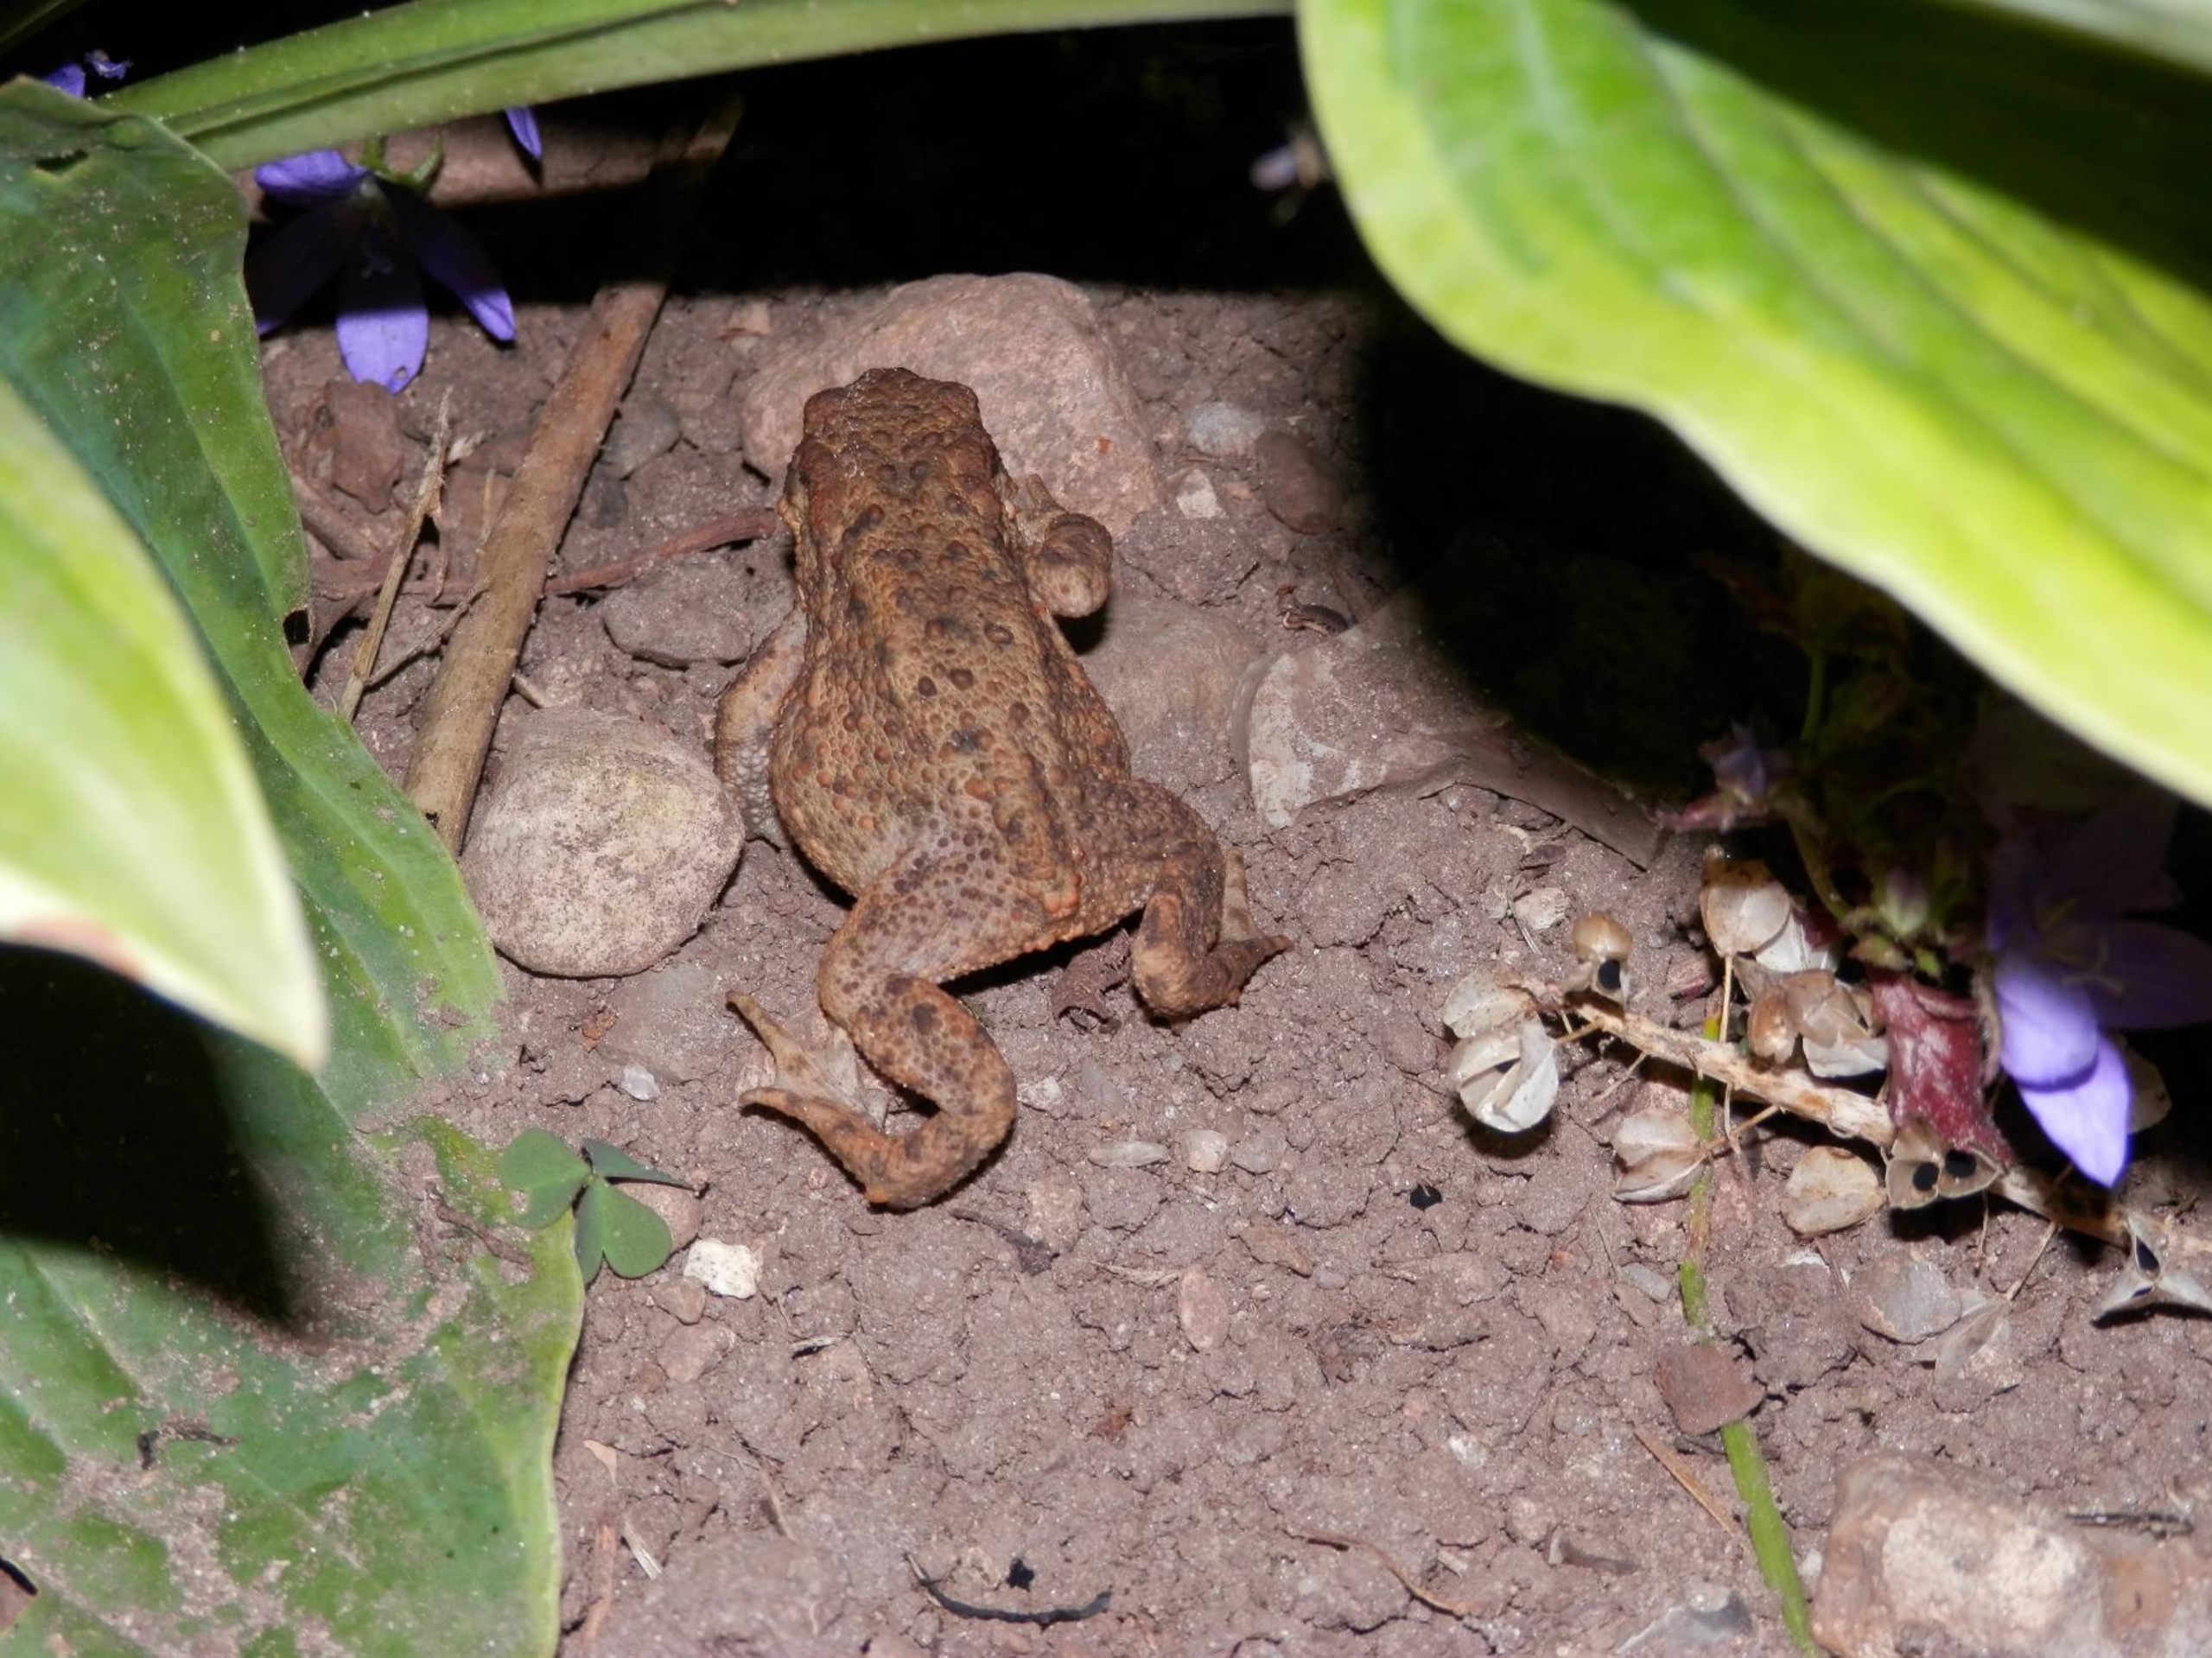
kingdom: Animalia
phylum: Chordata
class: Amphibia
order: Anura
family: Bufonidae
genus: Bufo
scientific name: Bufo bufo
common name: Skrubtudse
